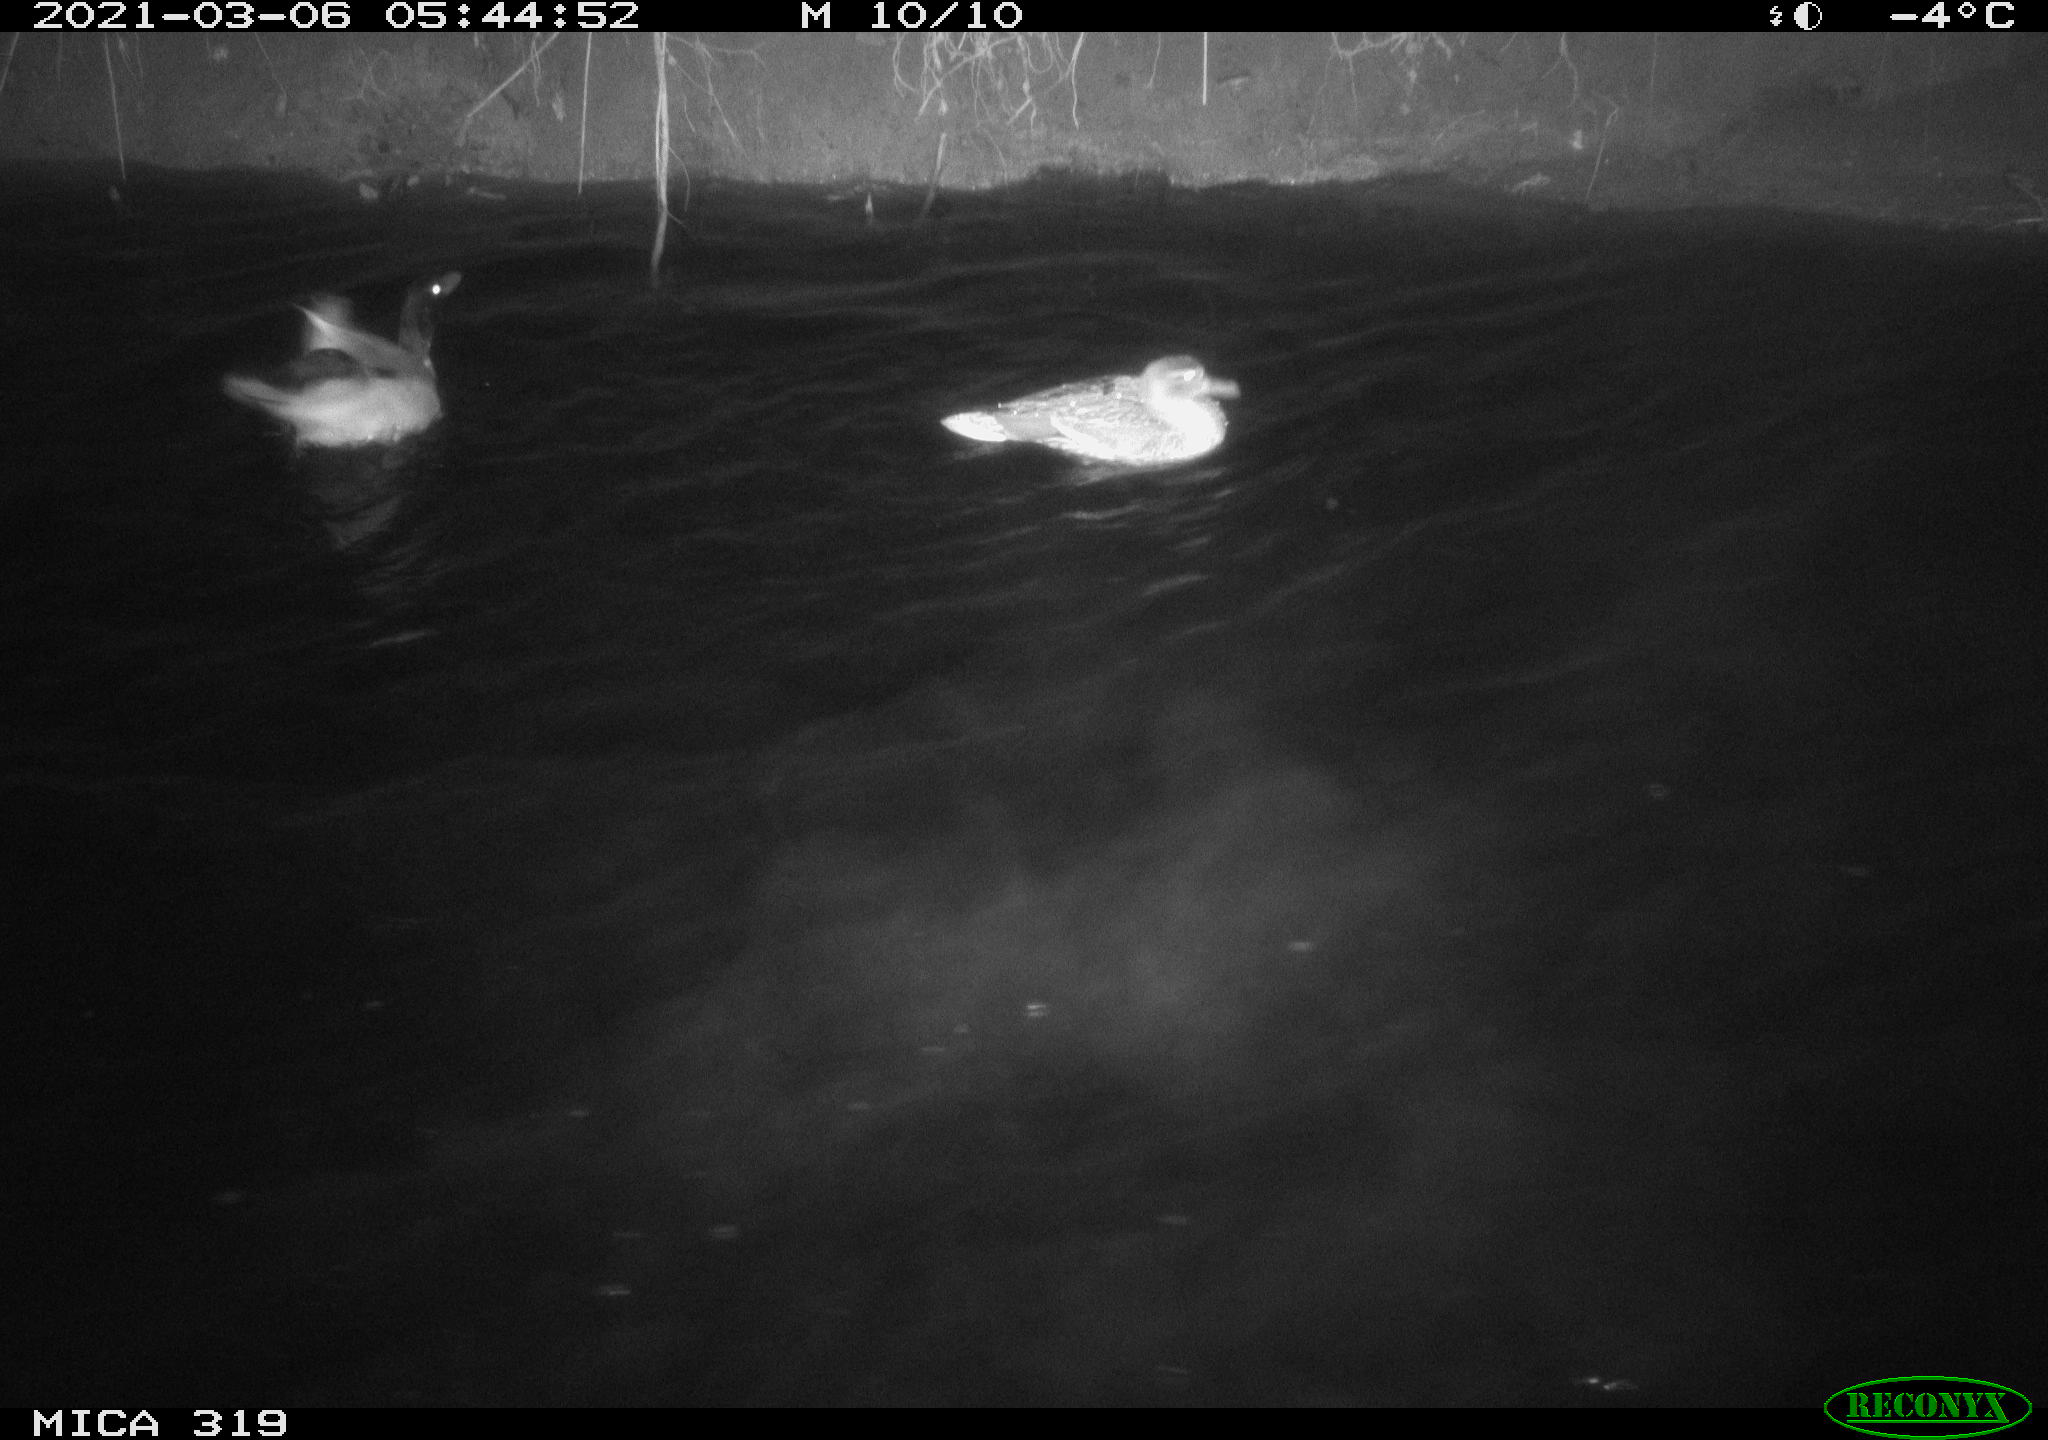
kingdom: Animalia
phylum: Chordata
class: Aves
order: Anseriformes
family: Anatidae
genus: Anas
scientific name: Anas platyrhynchos
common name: Mallard
